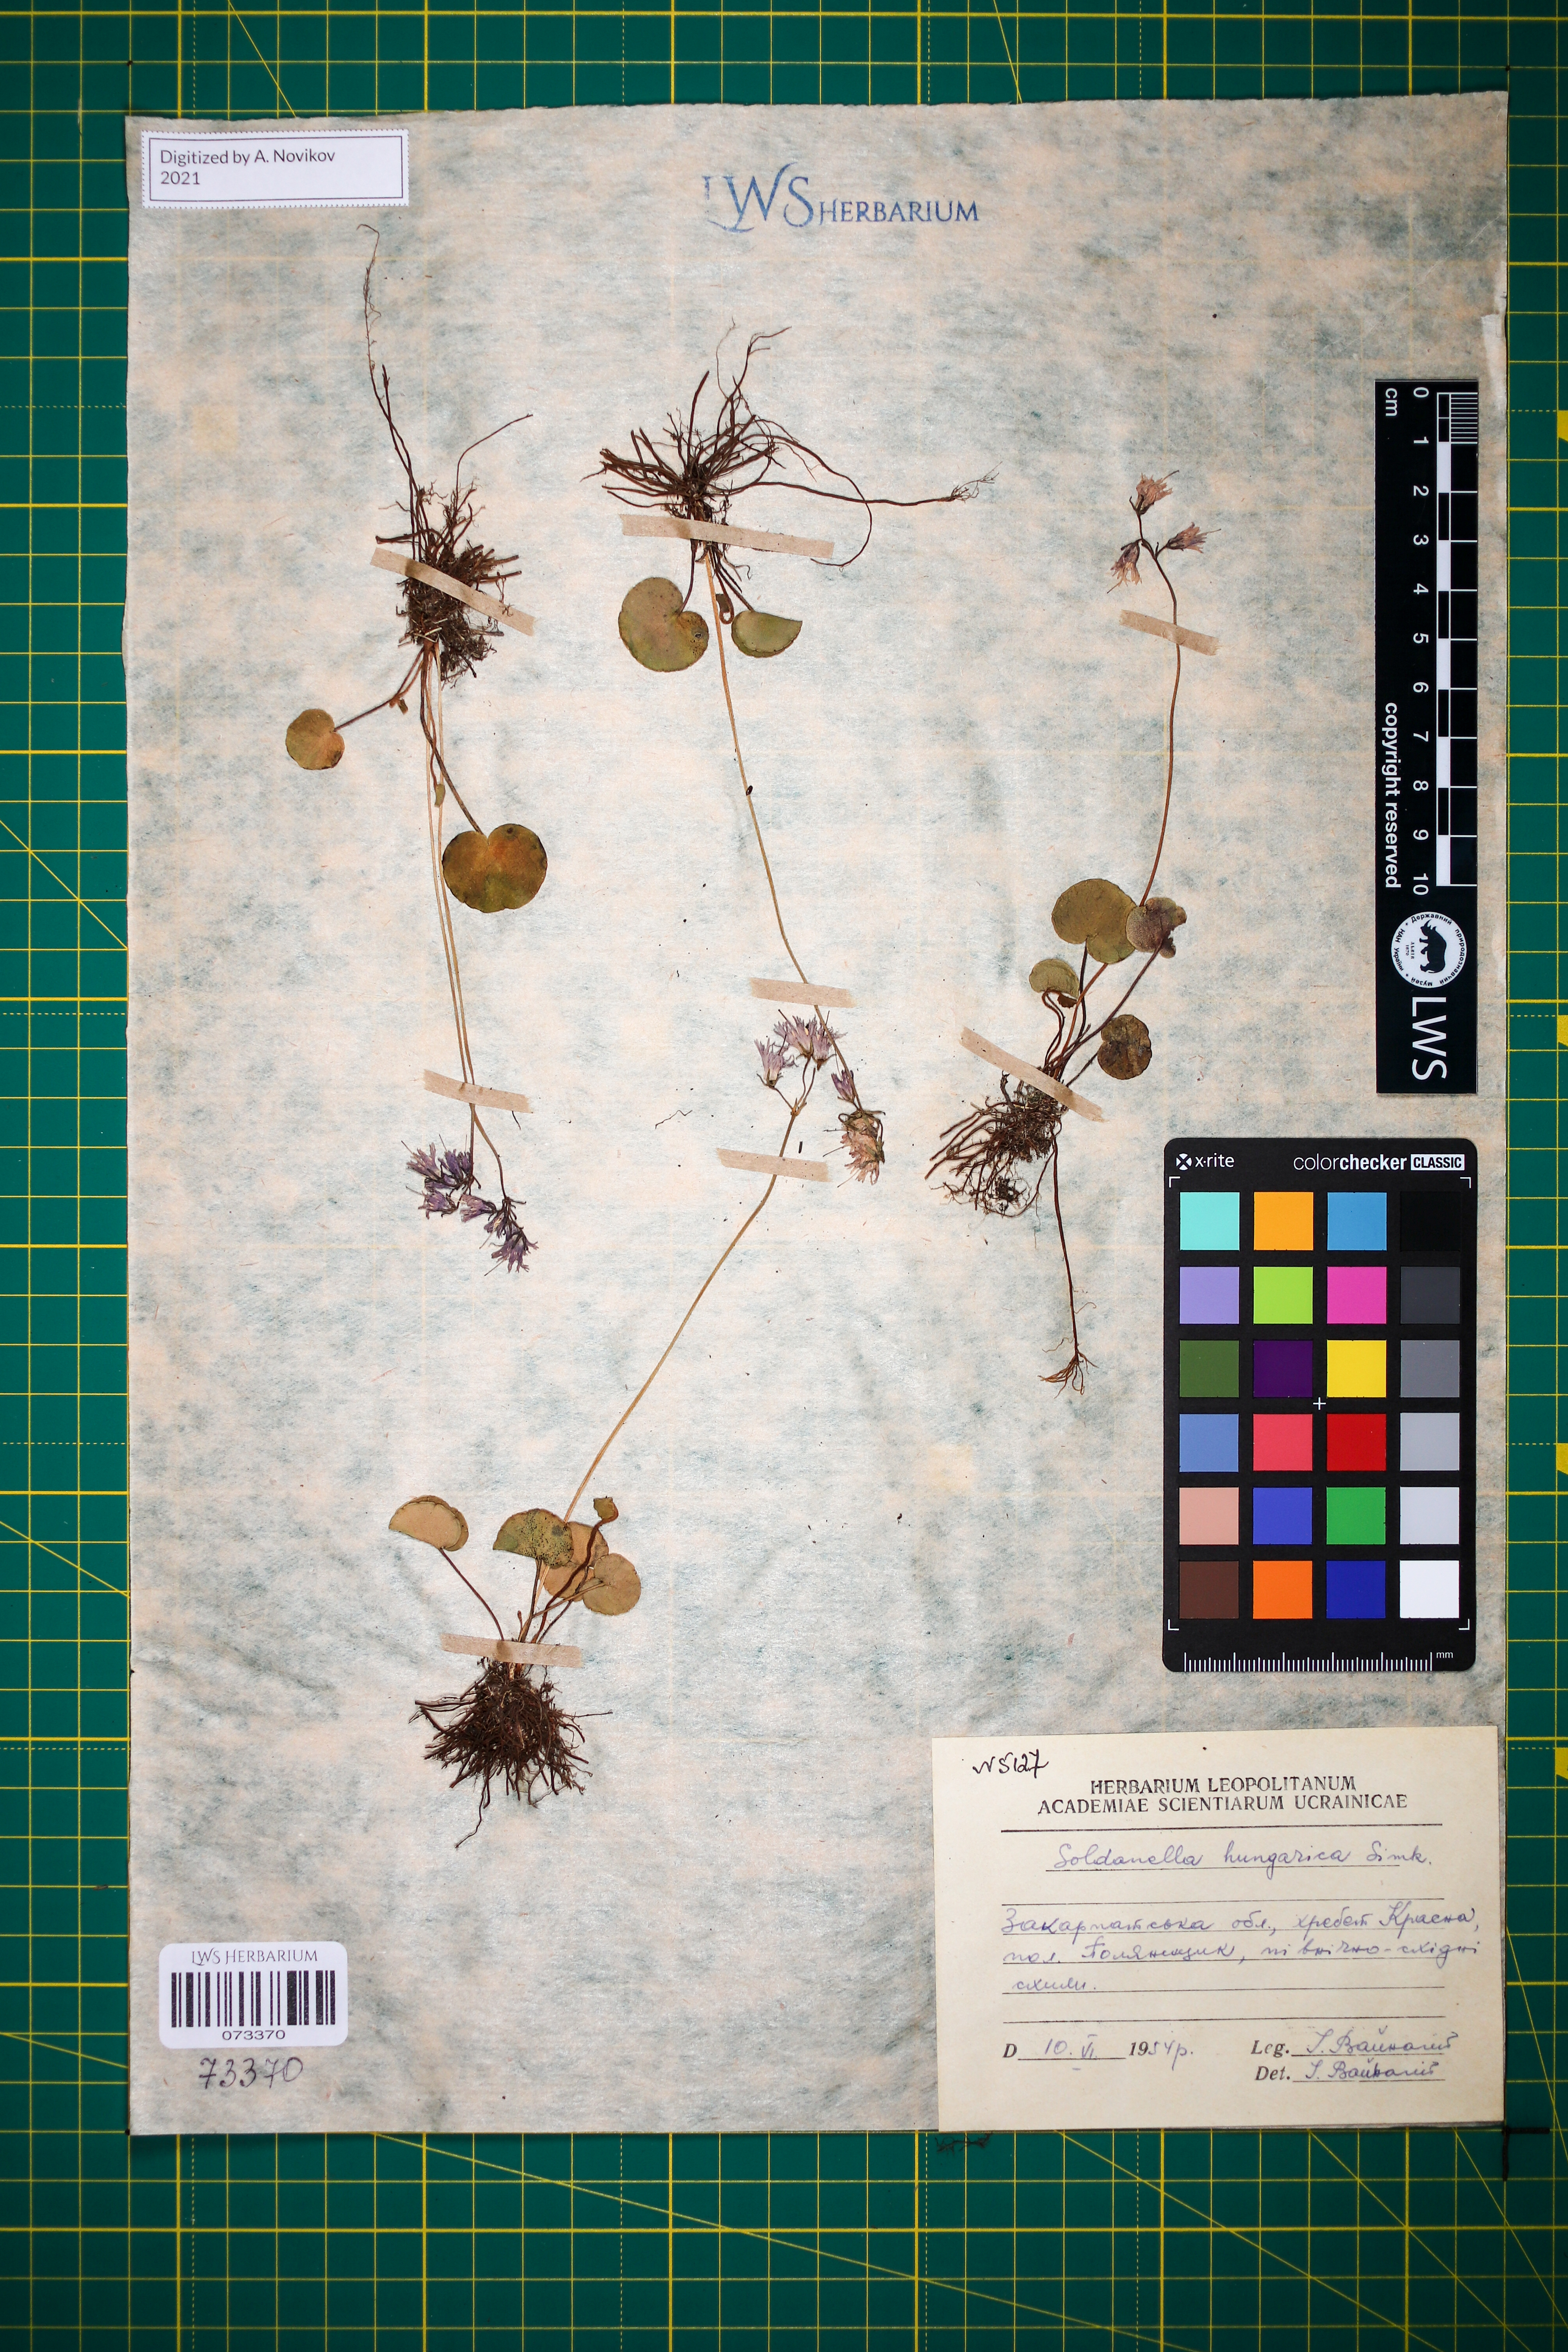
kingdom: Plantae
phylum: Tracheophyta
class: Magnoliopsida
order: Ericales
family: Primulaceae
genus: Soldanella
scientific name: Soldanella hungarica
